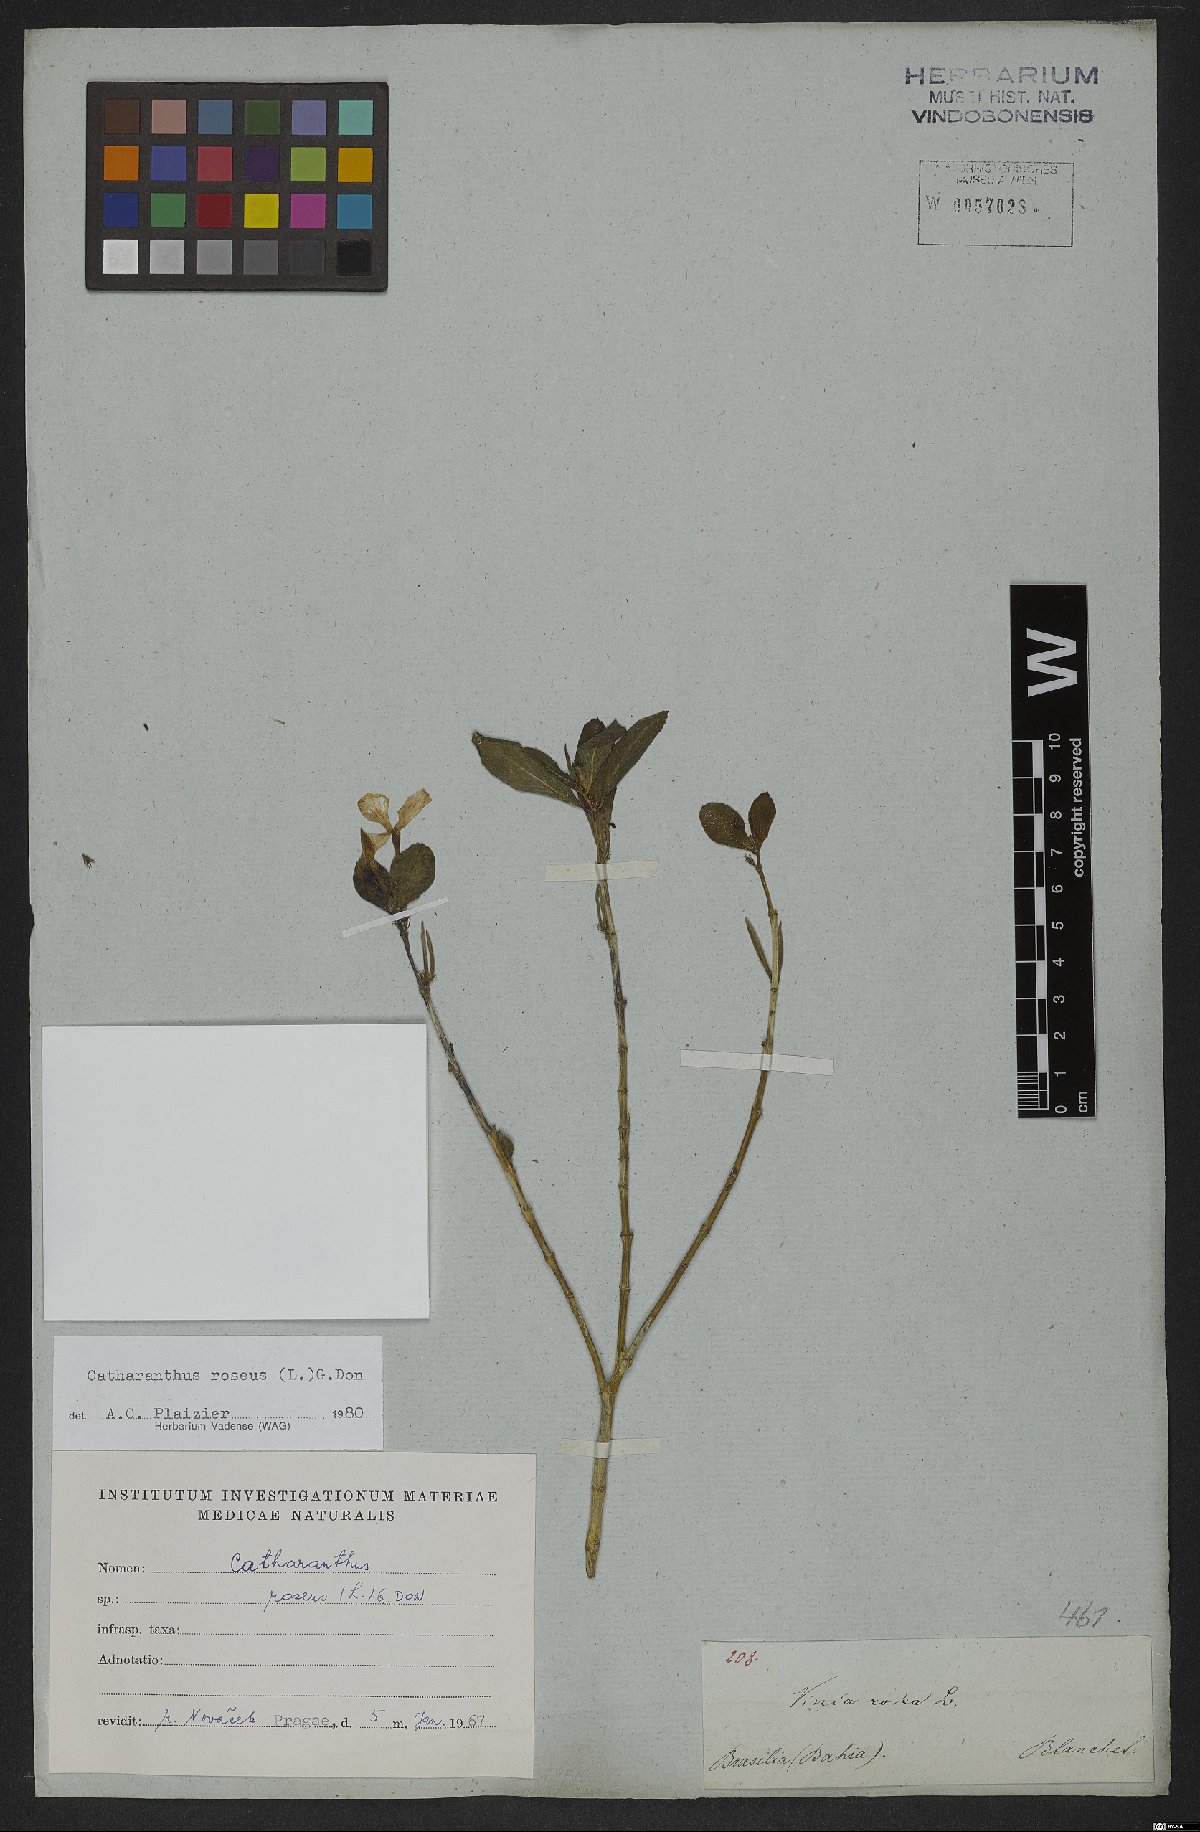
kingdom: Plantae
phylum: Tracheophyta
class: Magnoliopsida
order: Gentianales
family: Apocynaceae
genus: Catharanthus
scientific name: Catharanthus roseus
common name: Madagascar periwinkle
